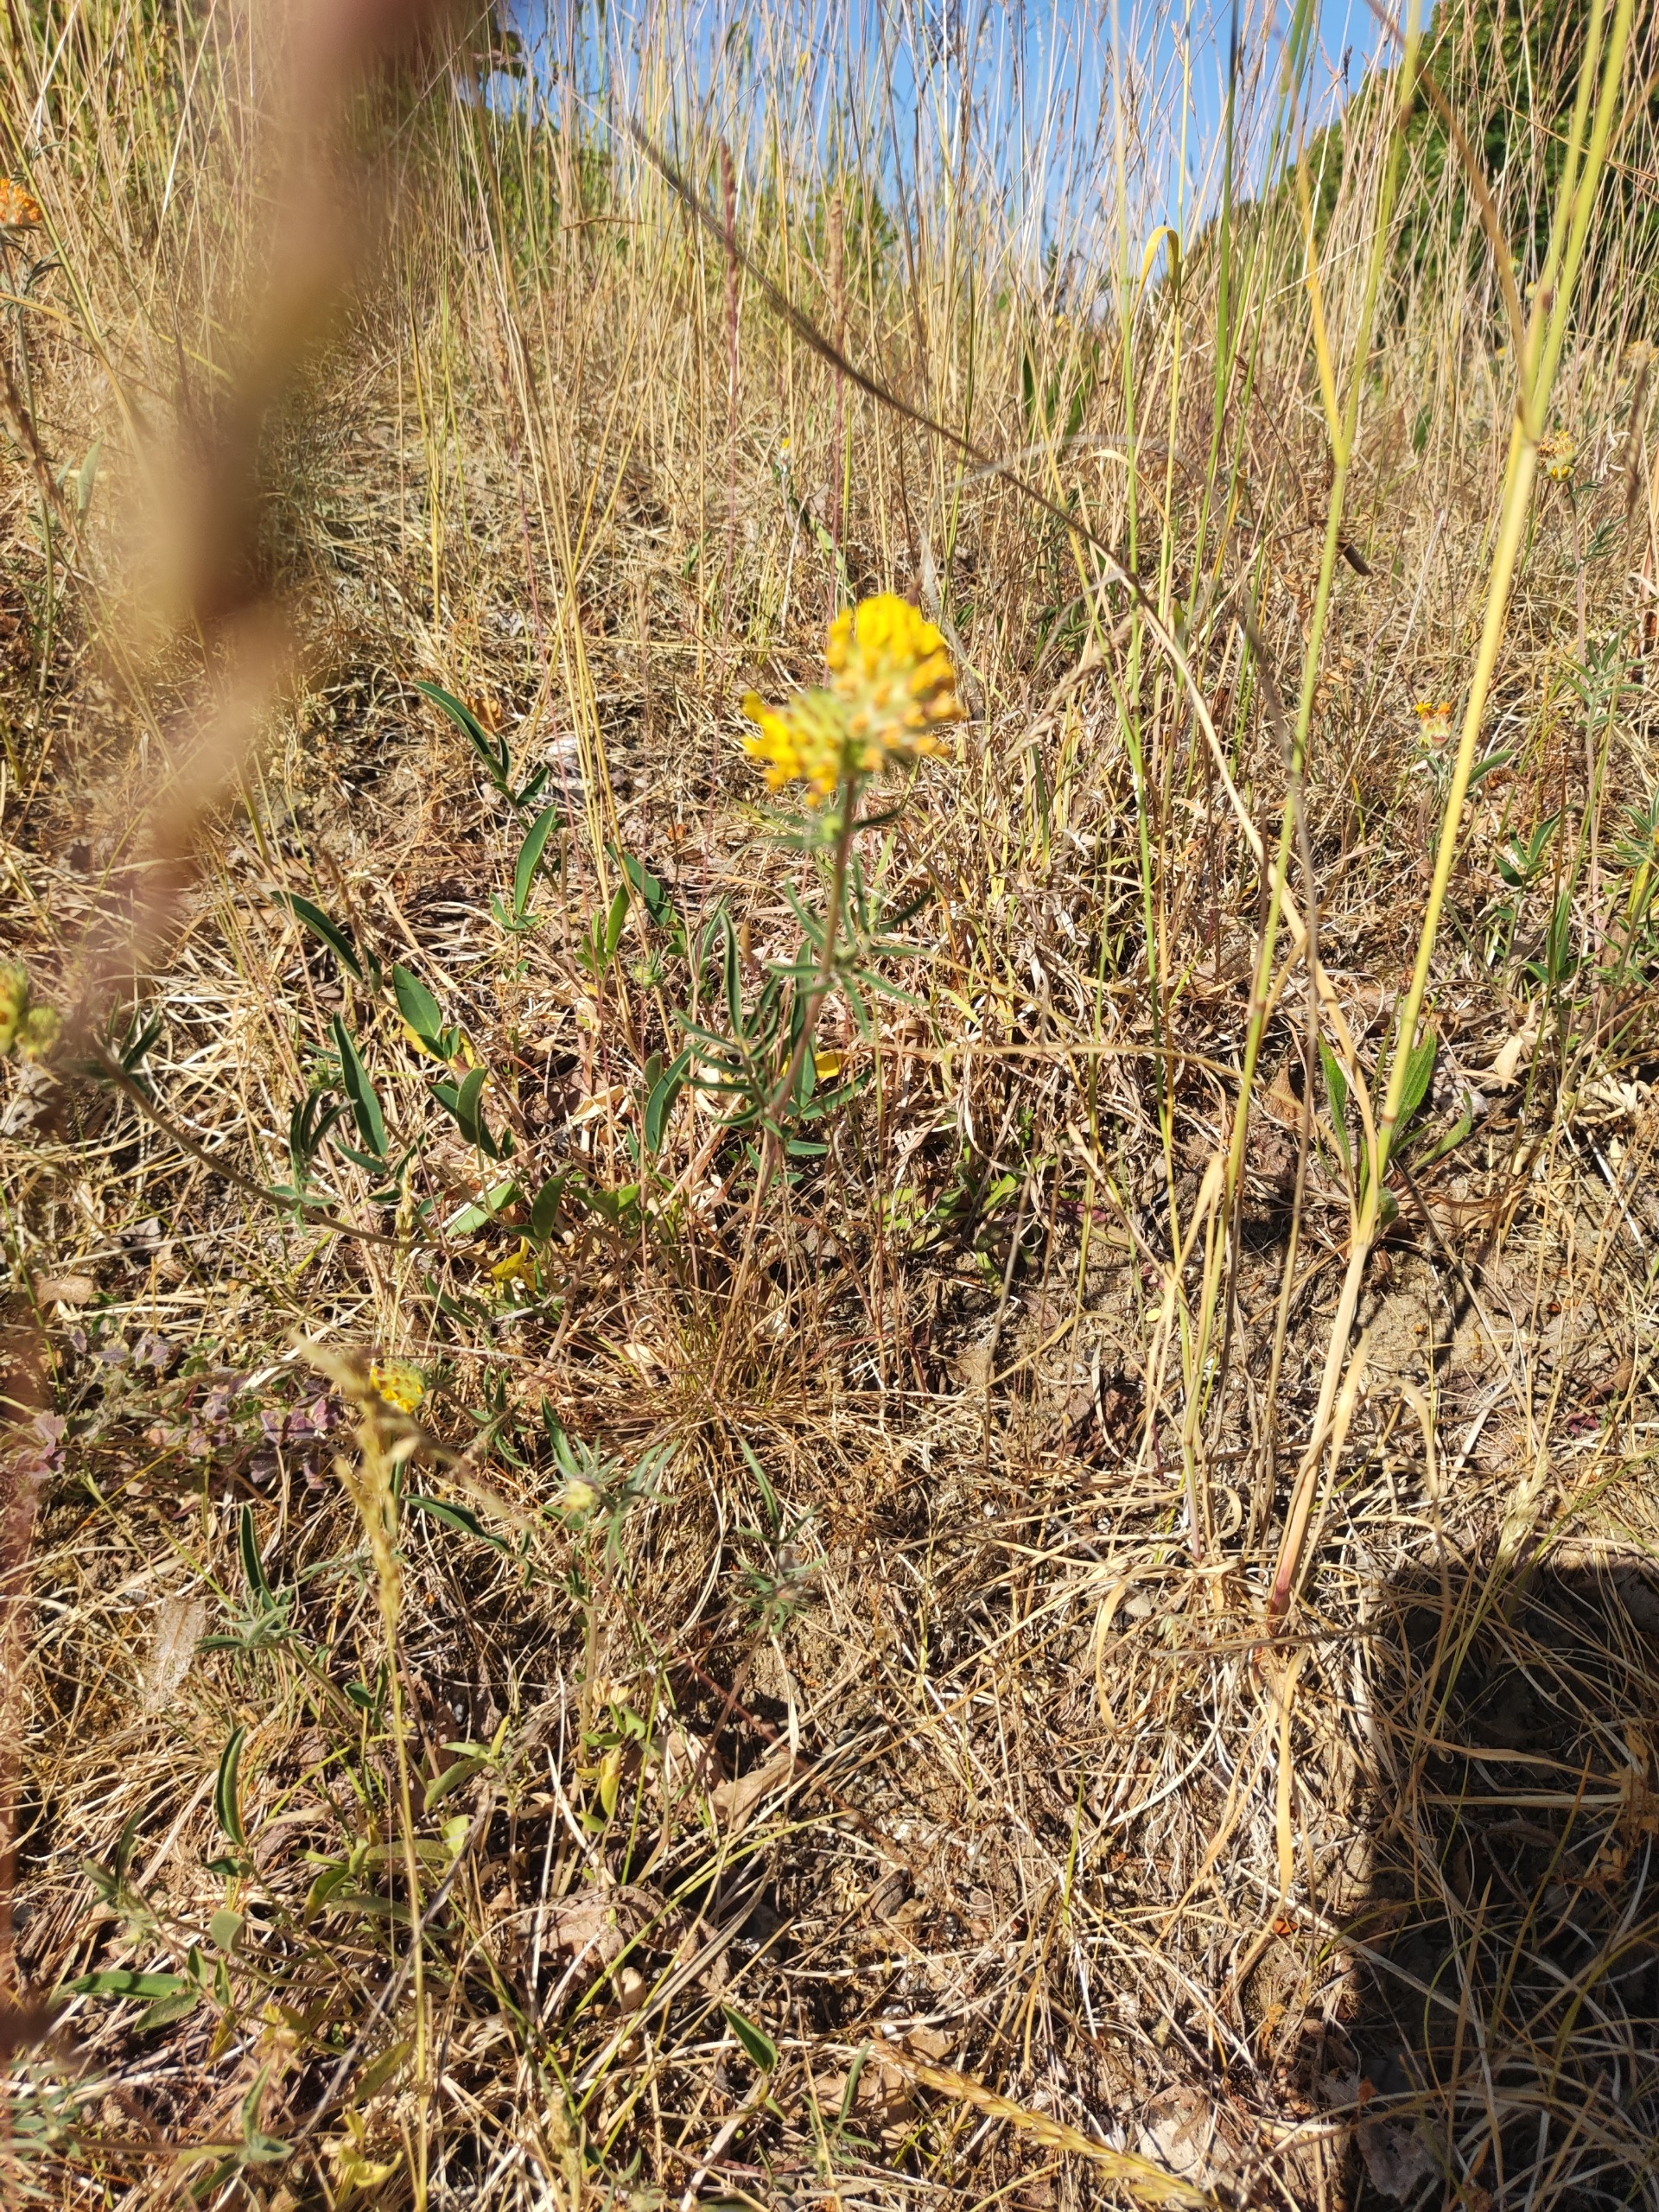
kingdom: Plantae
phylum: Tracheophyta
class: Magnoliopsida
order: Fabales
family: Fabaceae
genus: Anthyllis
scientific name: Anthyllis vulneraria
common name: Rundbælg
